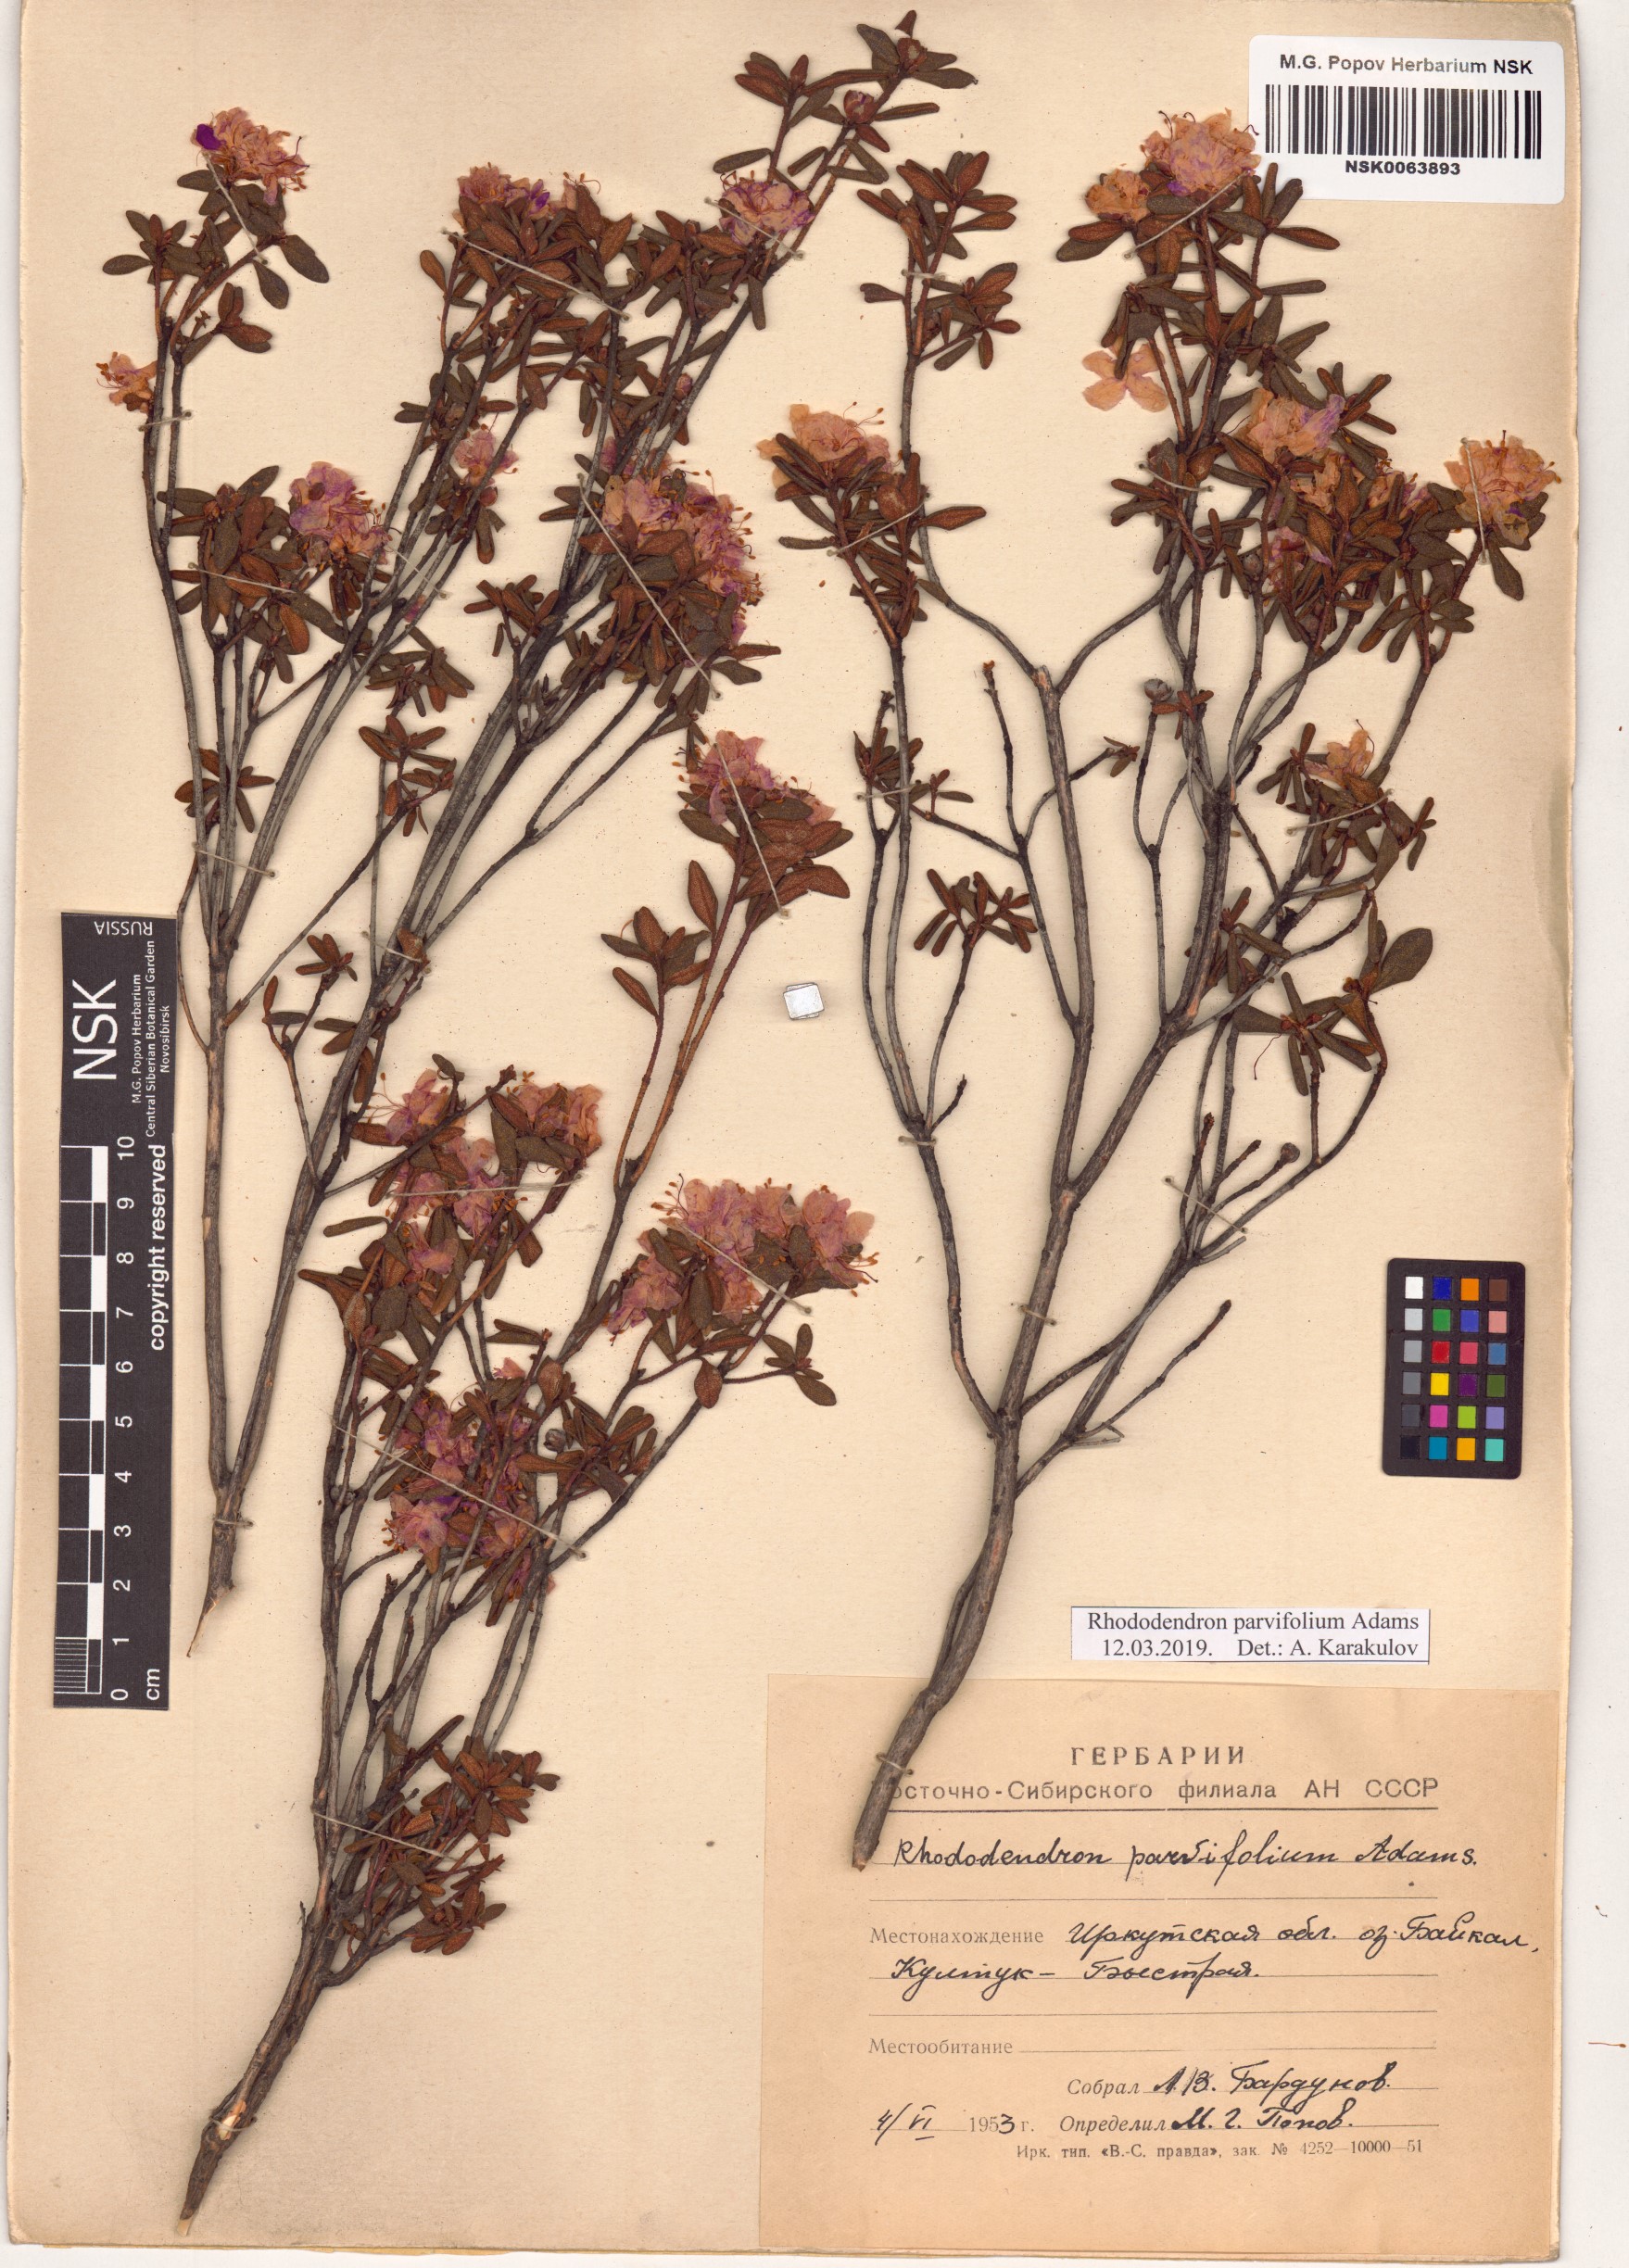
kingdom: Plantae
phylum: Tracheophyta
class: Magnoliopsida
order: Ericales
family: Ericaceae
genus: Rhododendron
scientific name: Rhododendron parvifolium
